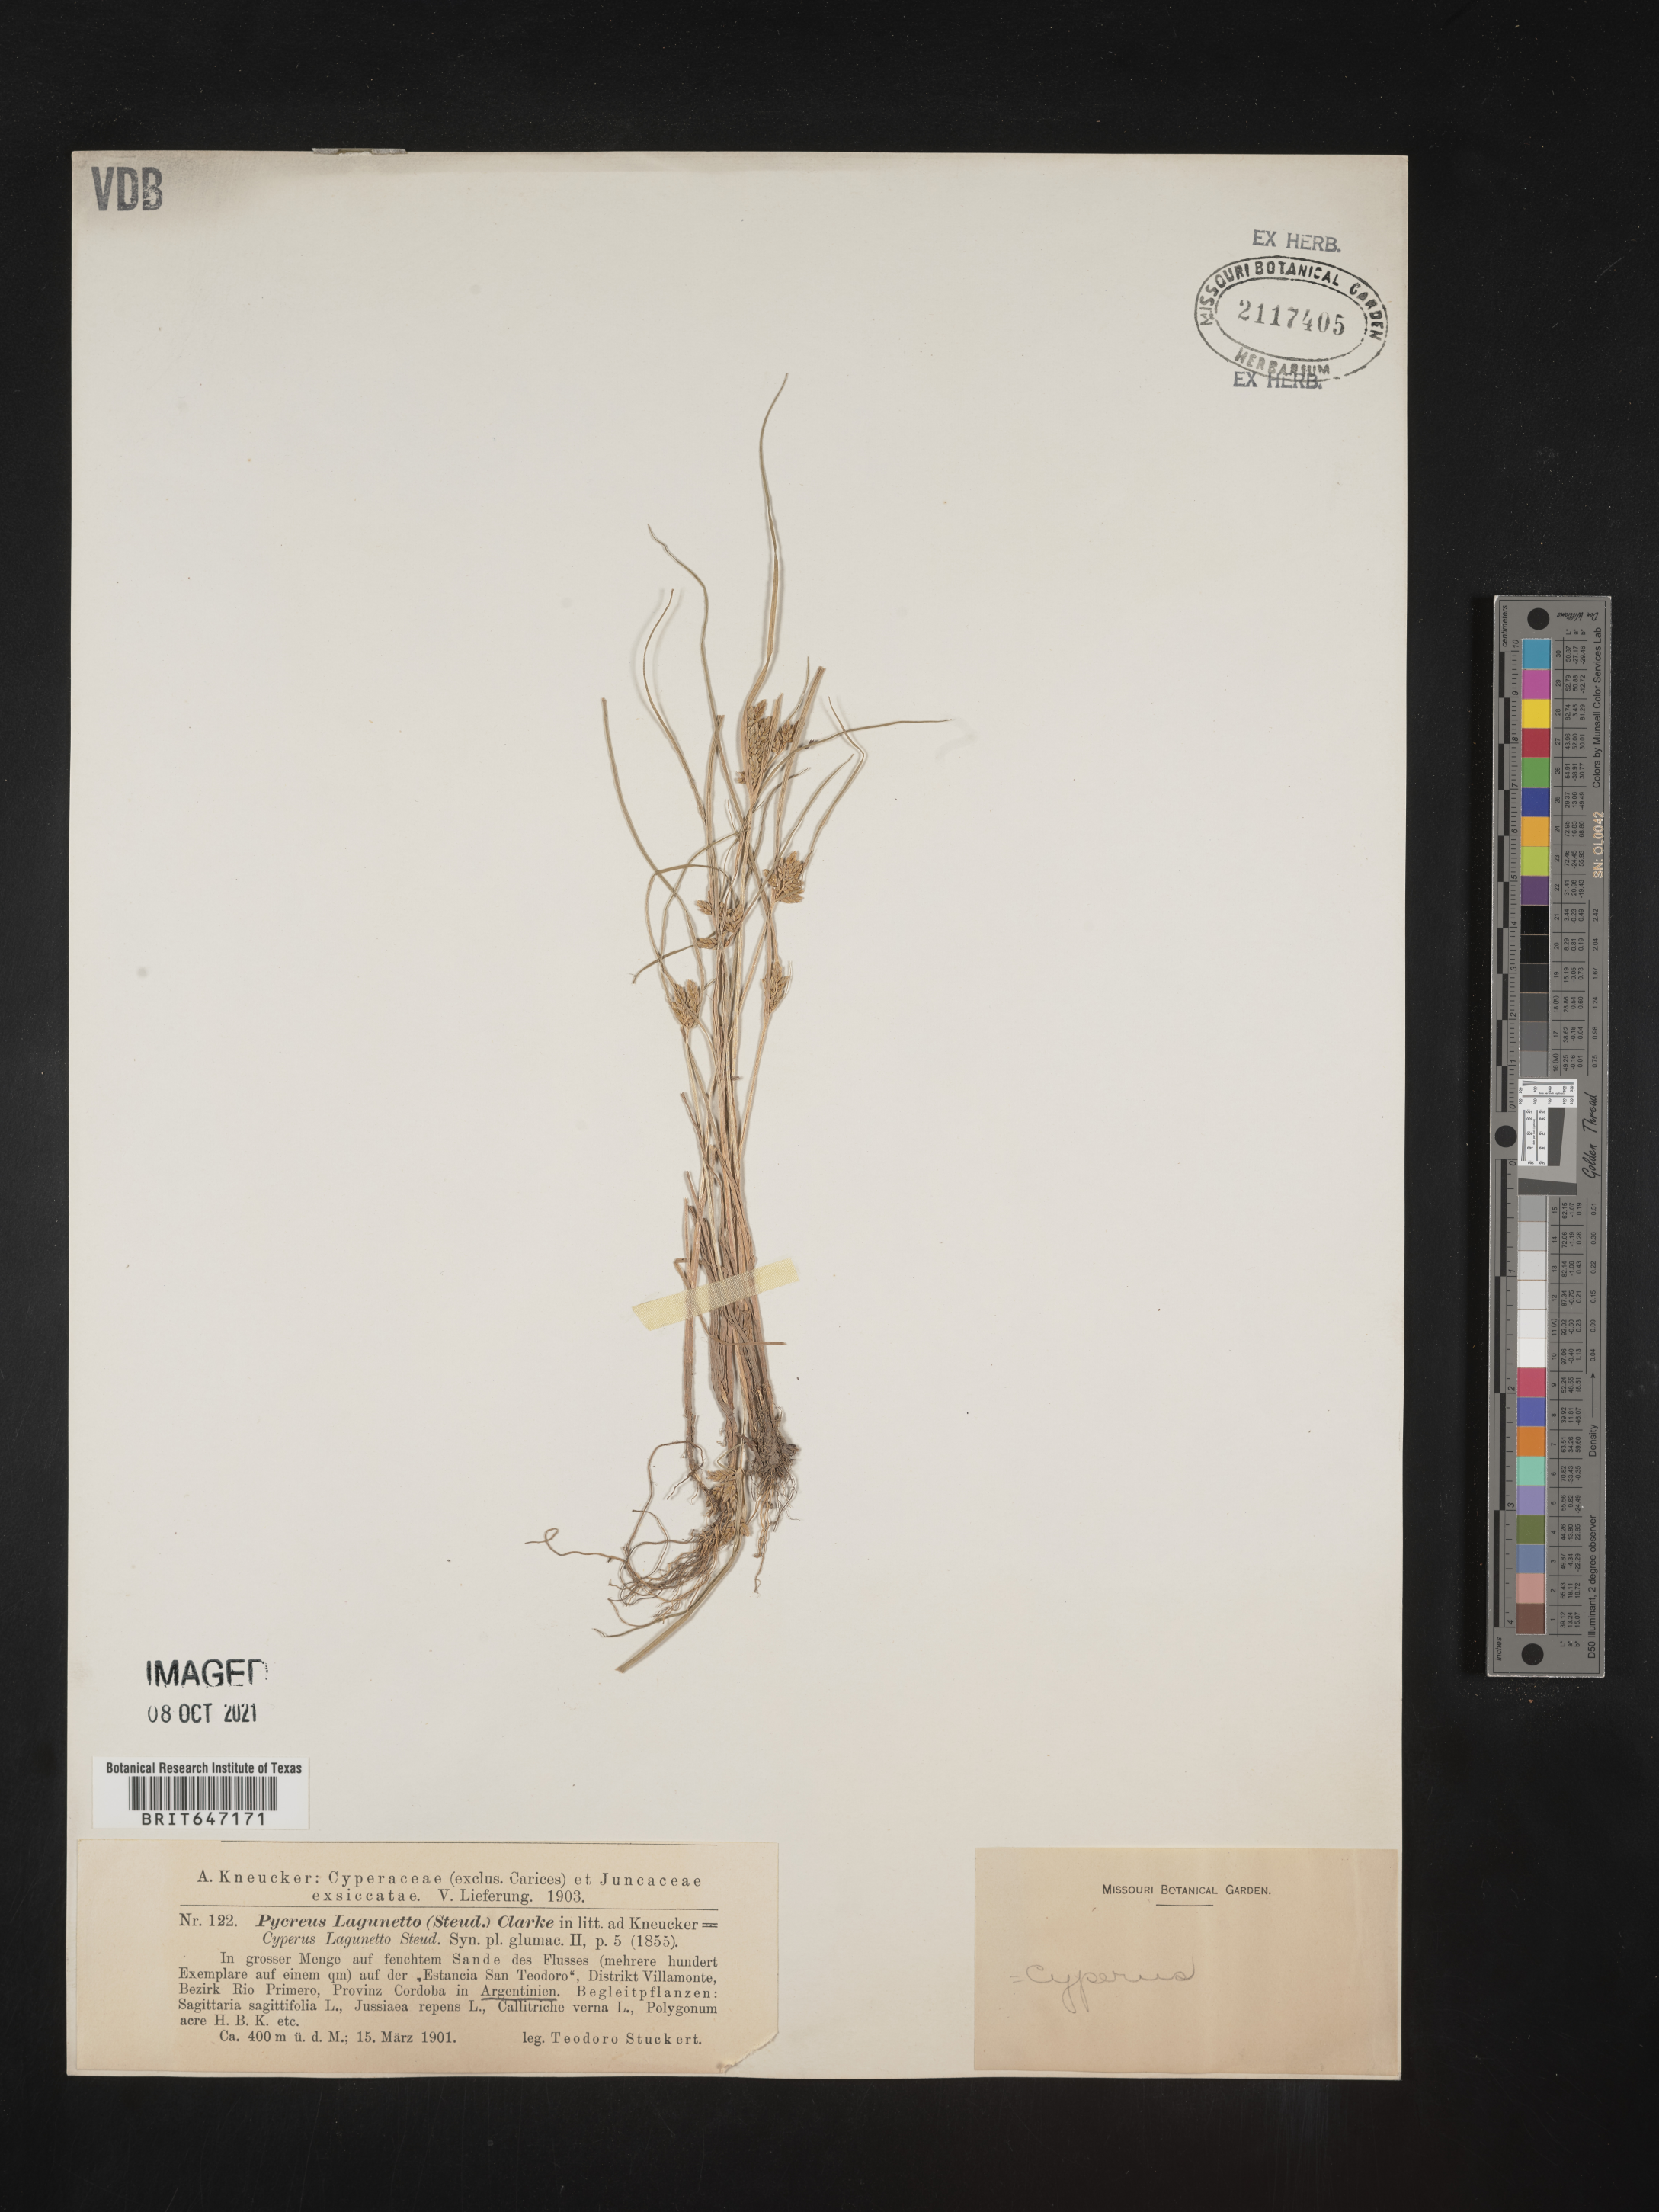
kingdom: Plantae
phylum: Tracheophyta
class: Liliopsida
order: Poales
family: Cyperaceae
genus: Cyperus
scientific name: Cyperus bipartitus
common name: Brook flatsedge
